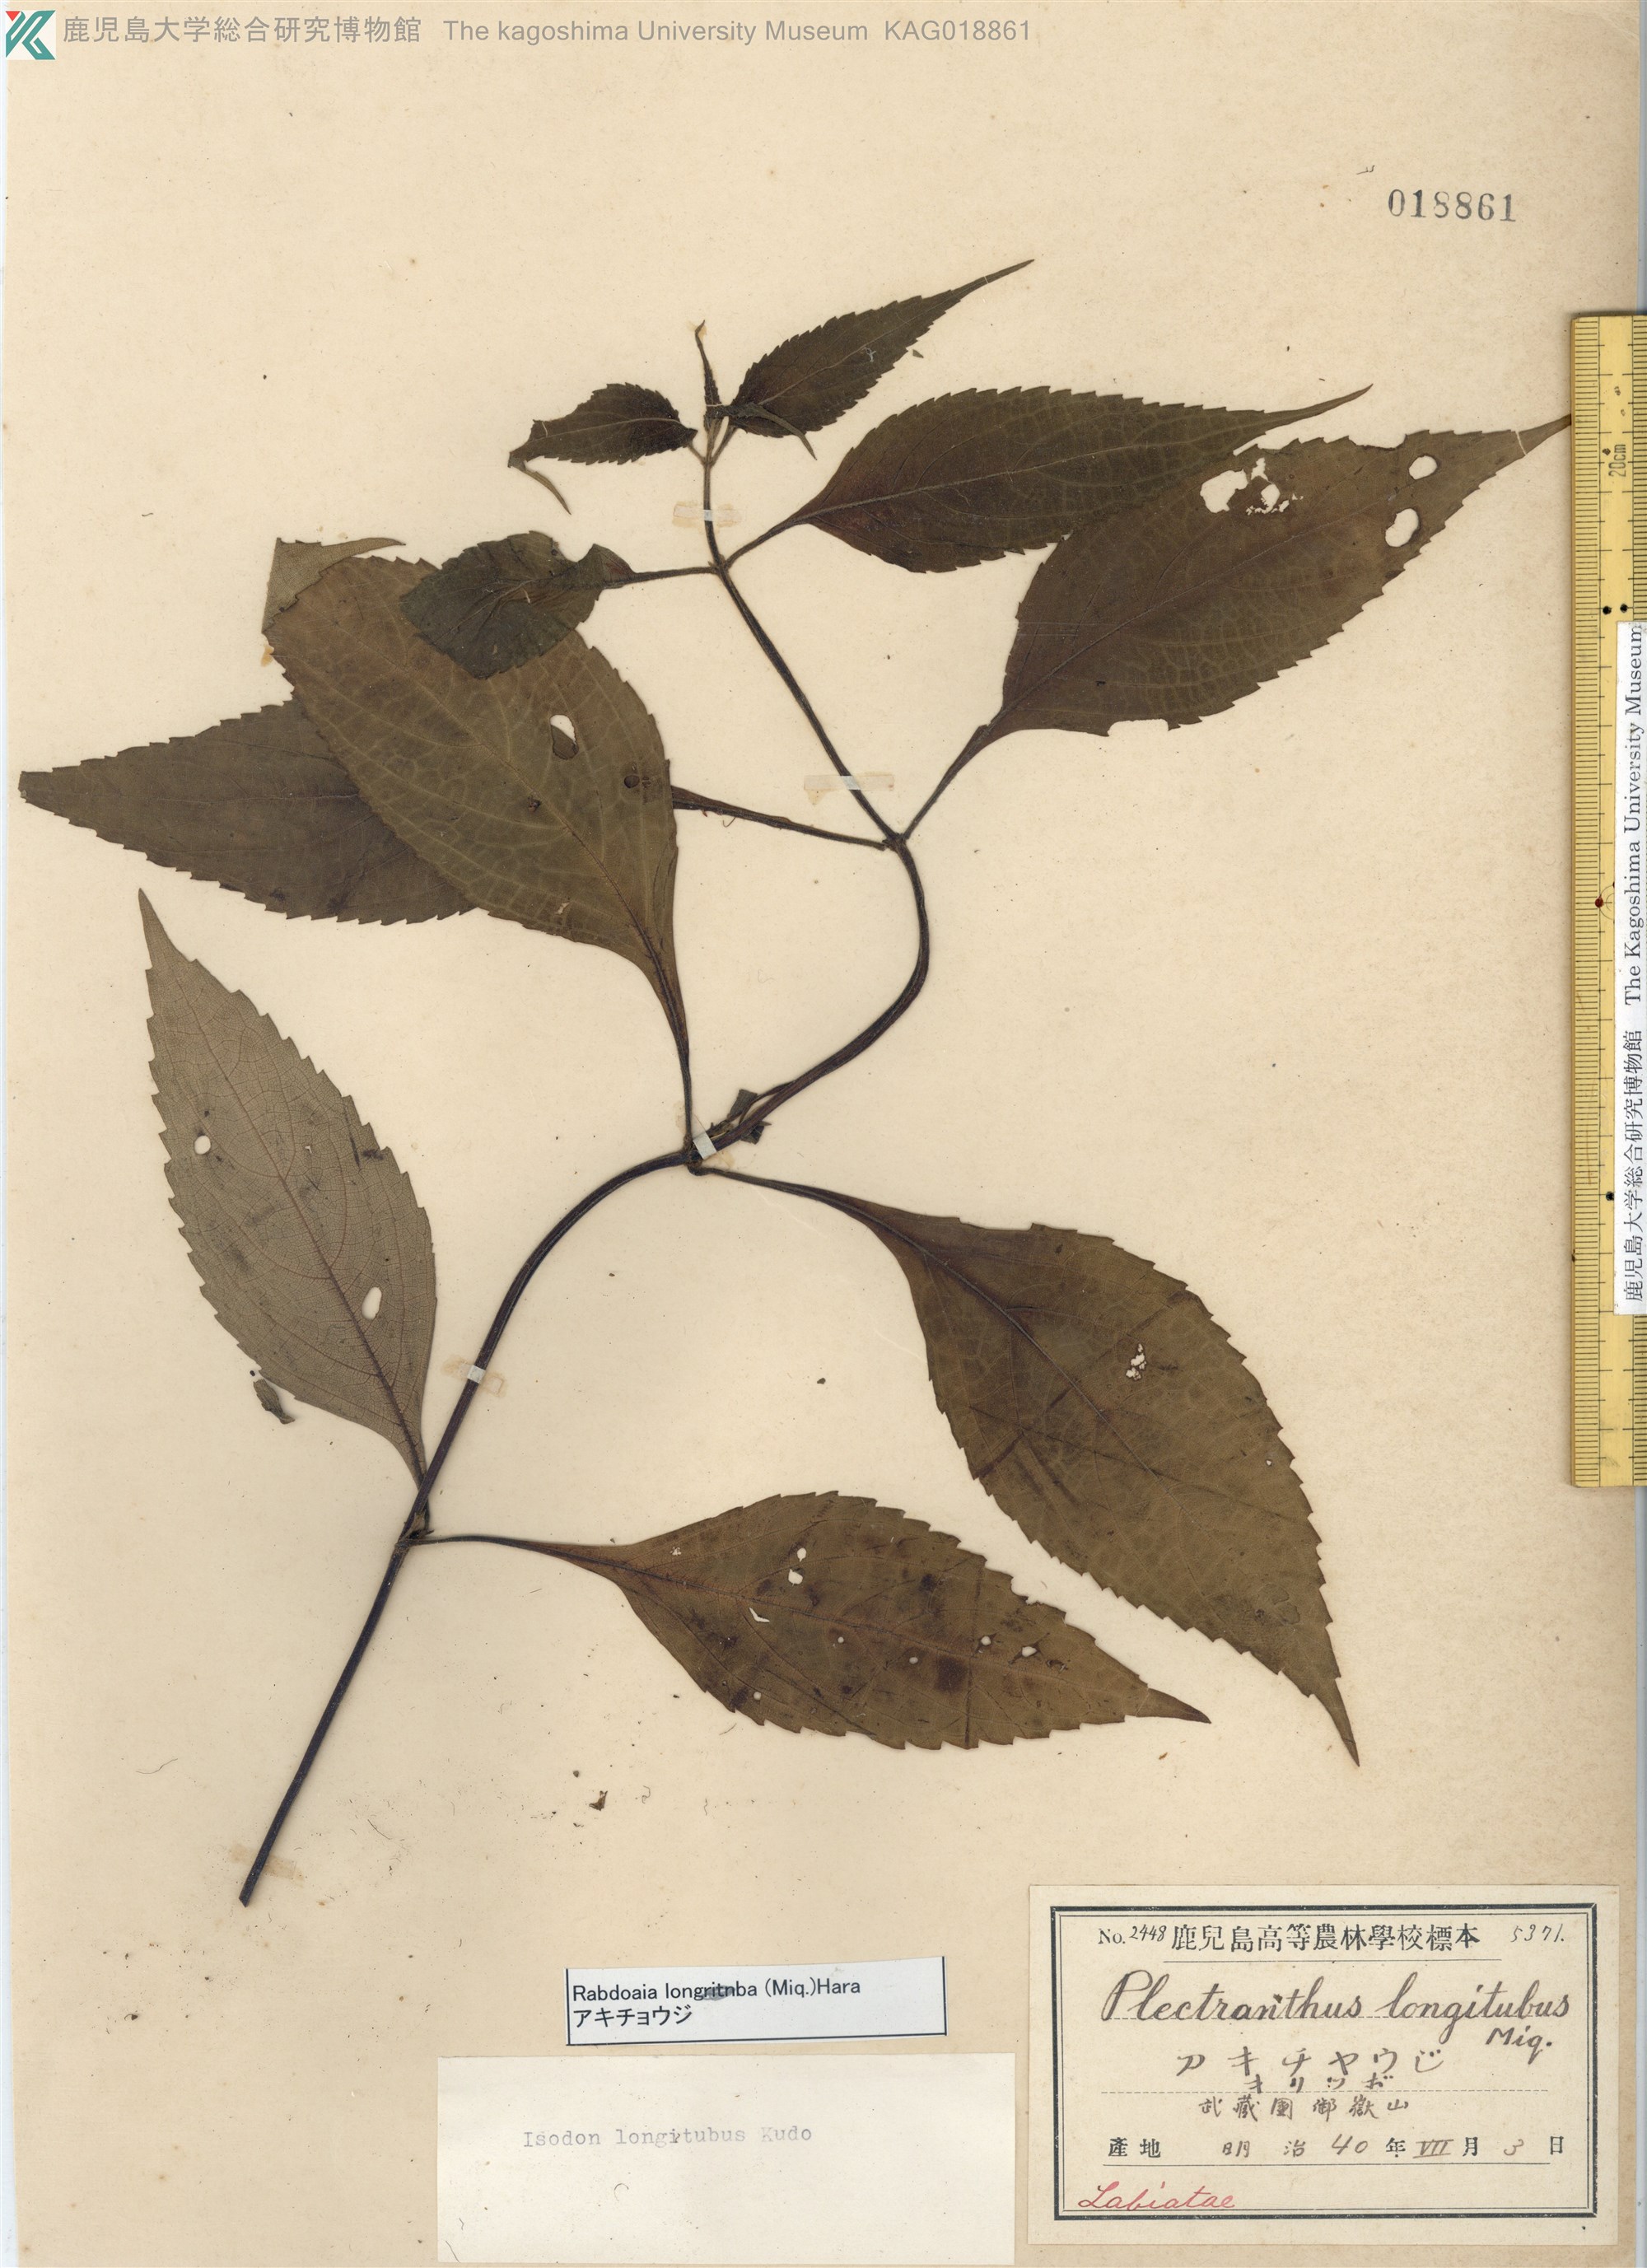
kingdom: Plantae
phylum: Tracheophyta
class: Magnoliopsida
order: Lamiales
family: Lamiaceae
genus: Isodon
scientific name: Isodon longitubus
